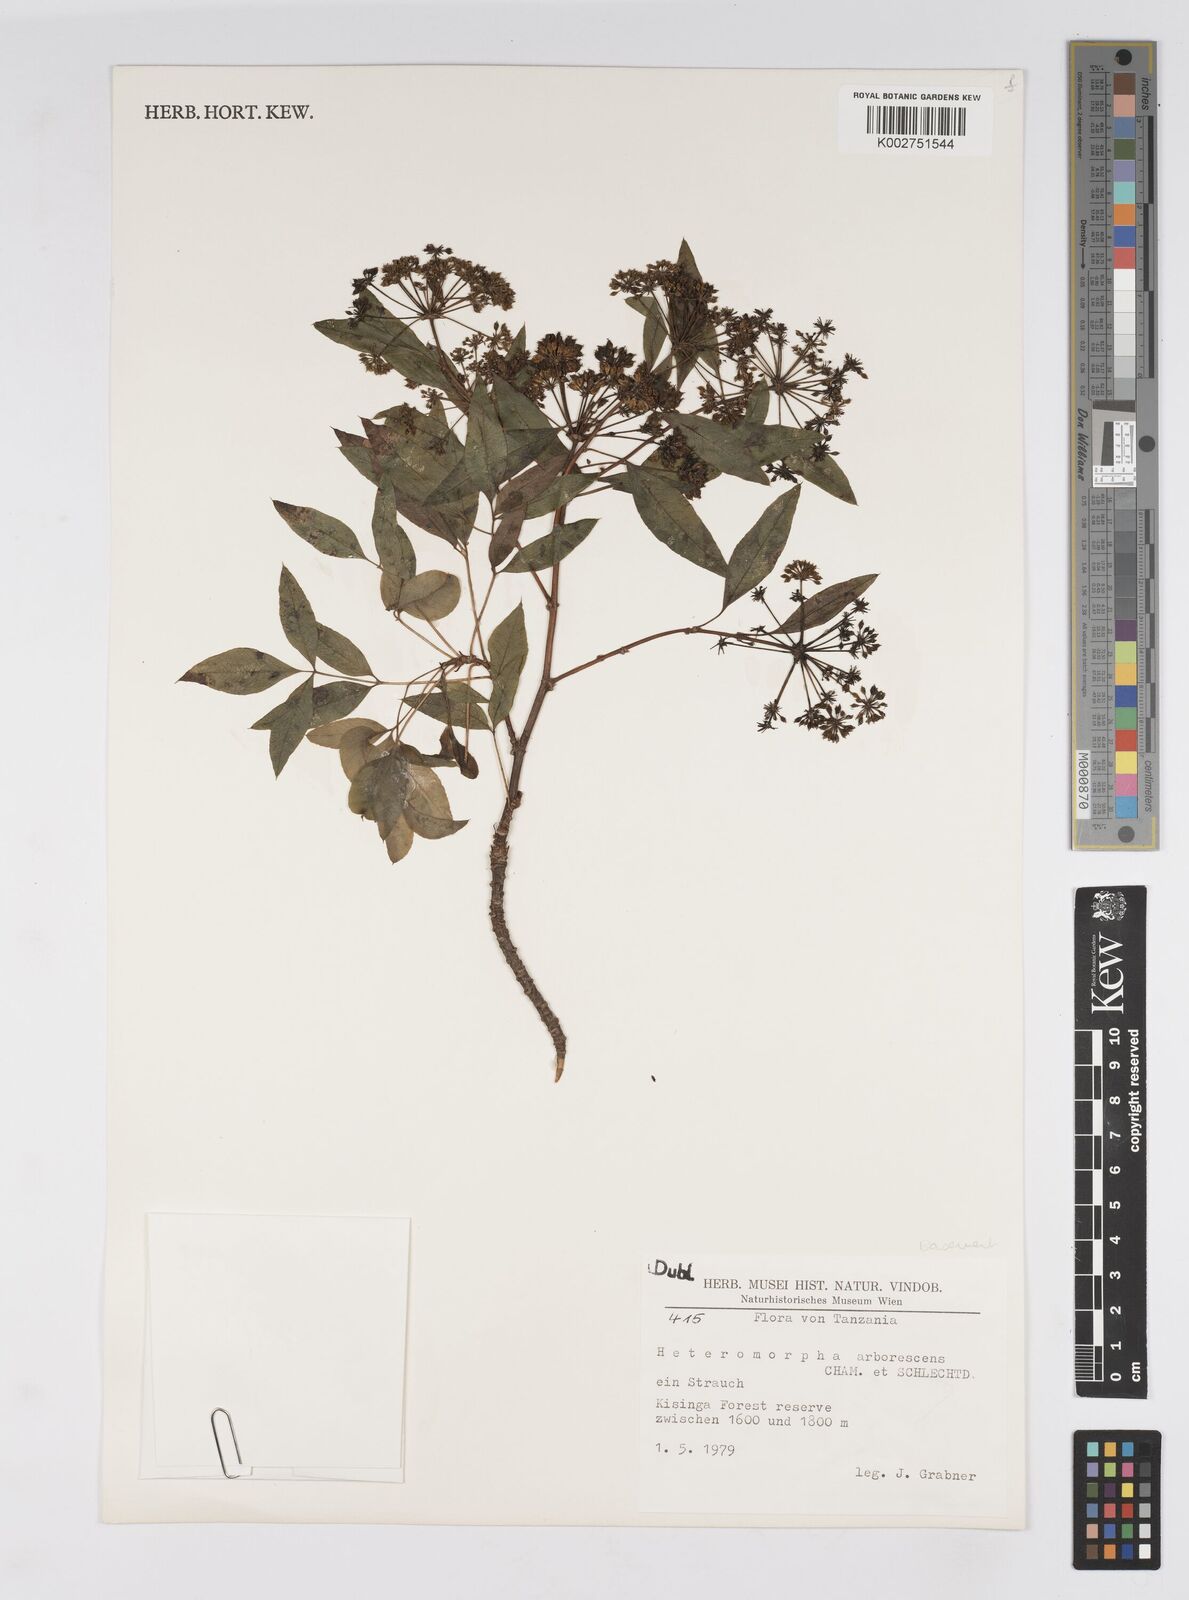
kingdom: Plantae
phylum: Tracheophyta
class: Magnoliopsida
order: Apiales
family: Apiaceae
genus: Heteromorpha
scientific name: Heteromorpha arborescens
